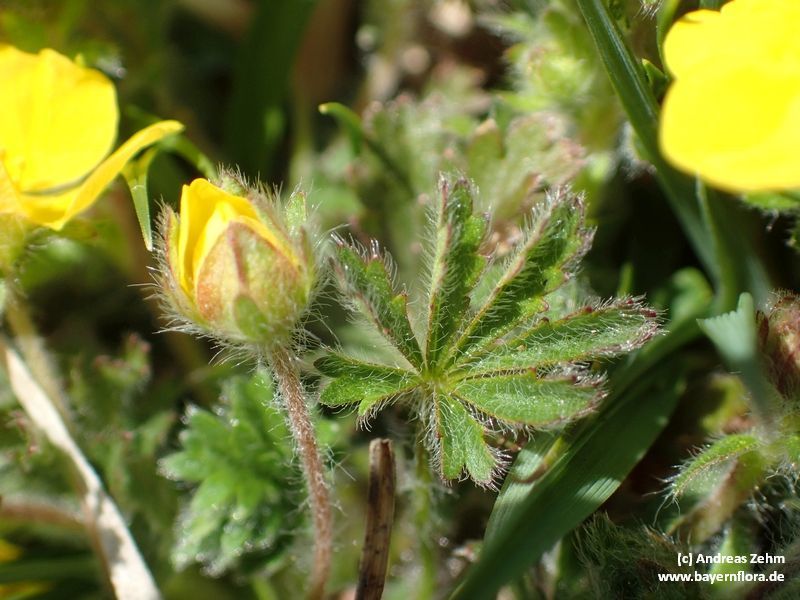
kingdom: Plantae
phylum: Tracheophyta
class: Magnoliopsida
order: Rosales
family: Rosaceae
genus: Potentilla
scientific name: Potentilla heptaphylla
